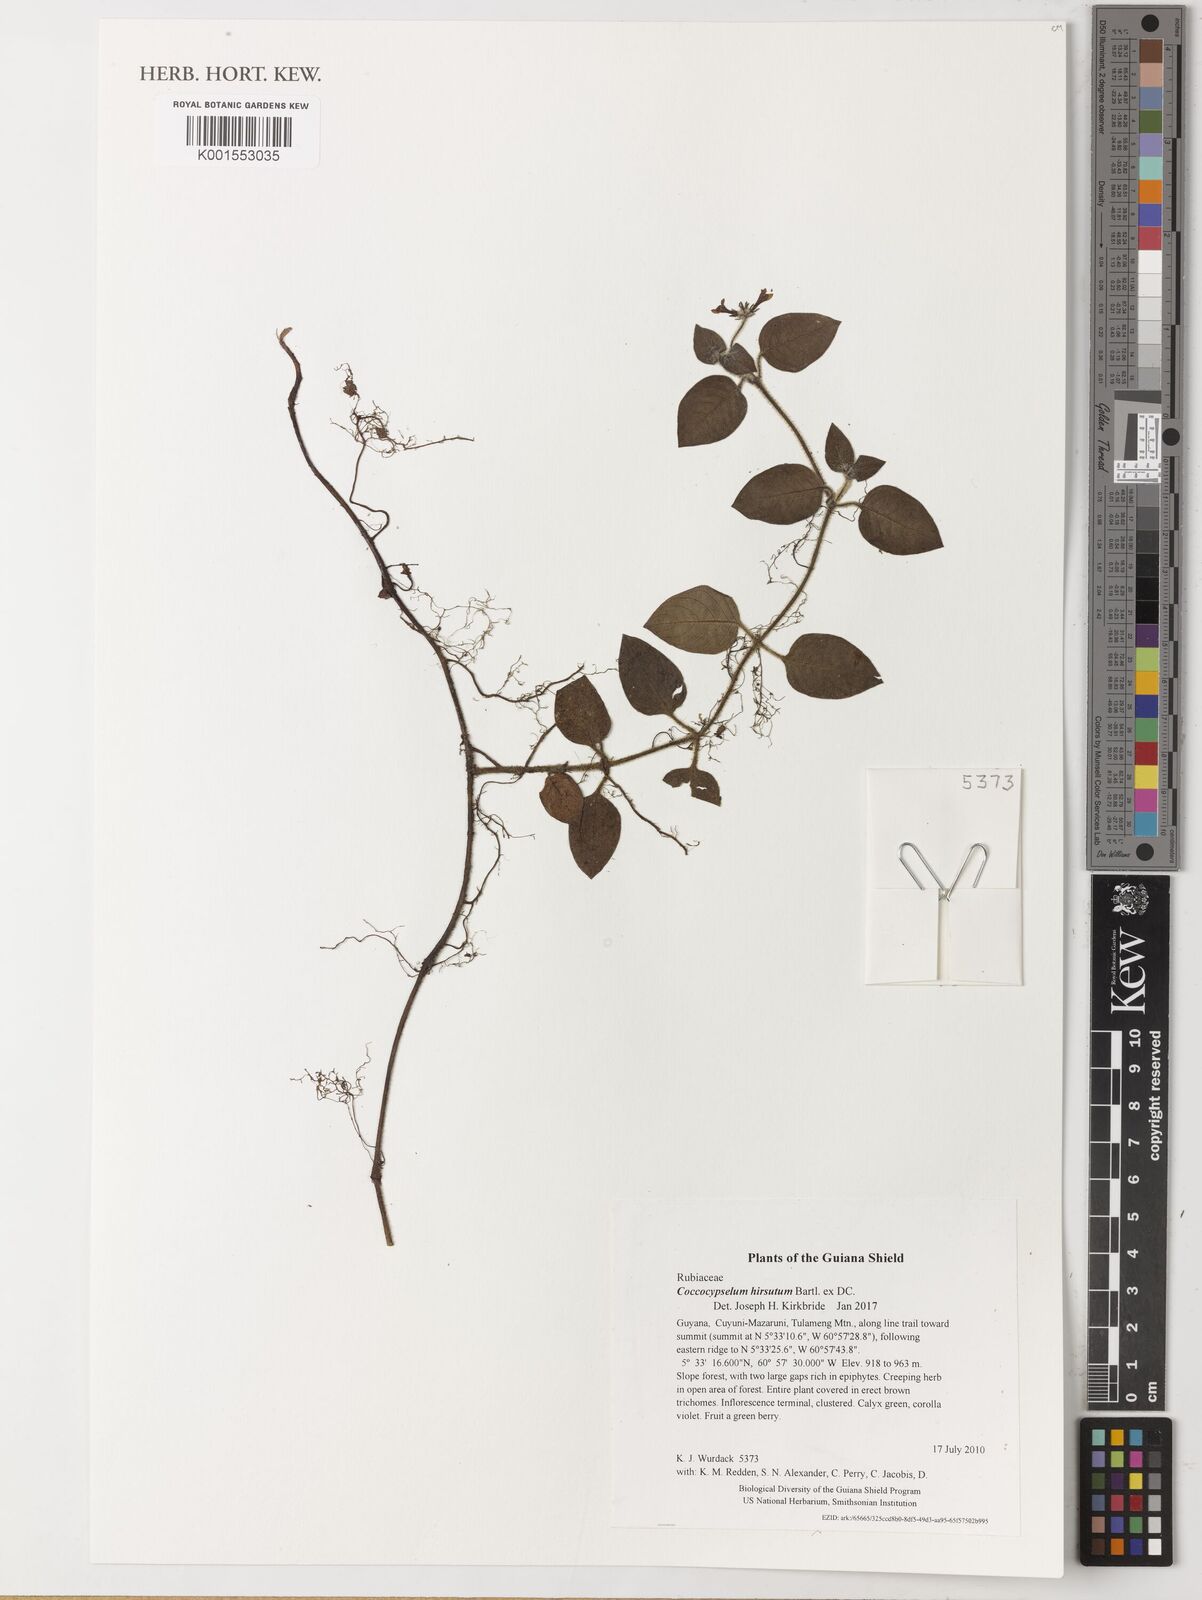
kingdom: Plantae
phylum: Tracheophyta
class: Magnoliopsida
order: Gentianales
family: Rubiaceae
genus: Coccocypselum
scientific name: Coccocypselum hirsutum
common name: Yerba de guava
